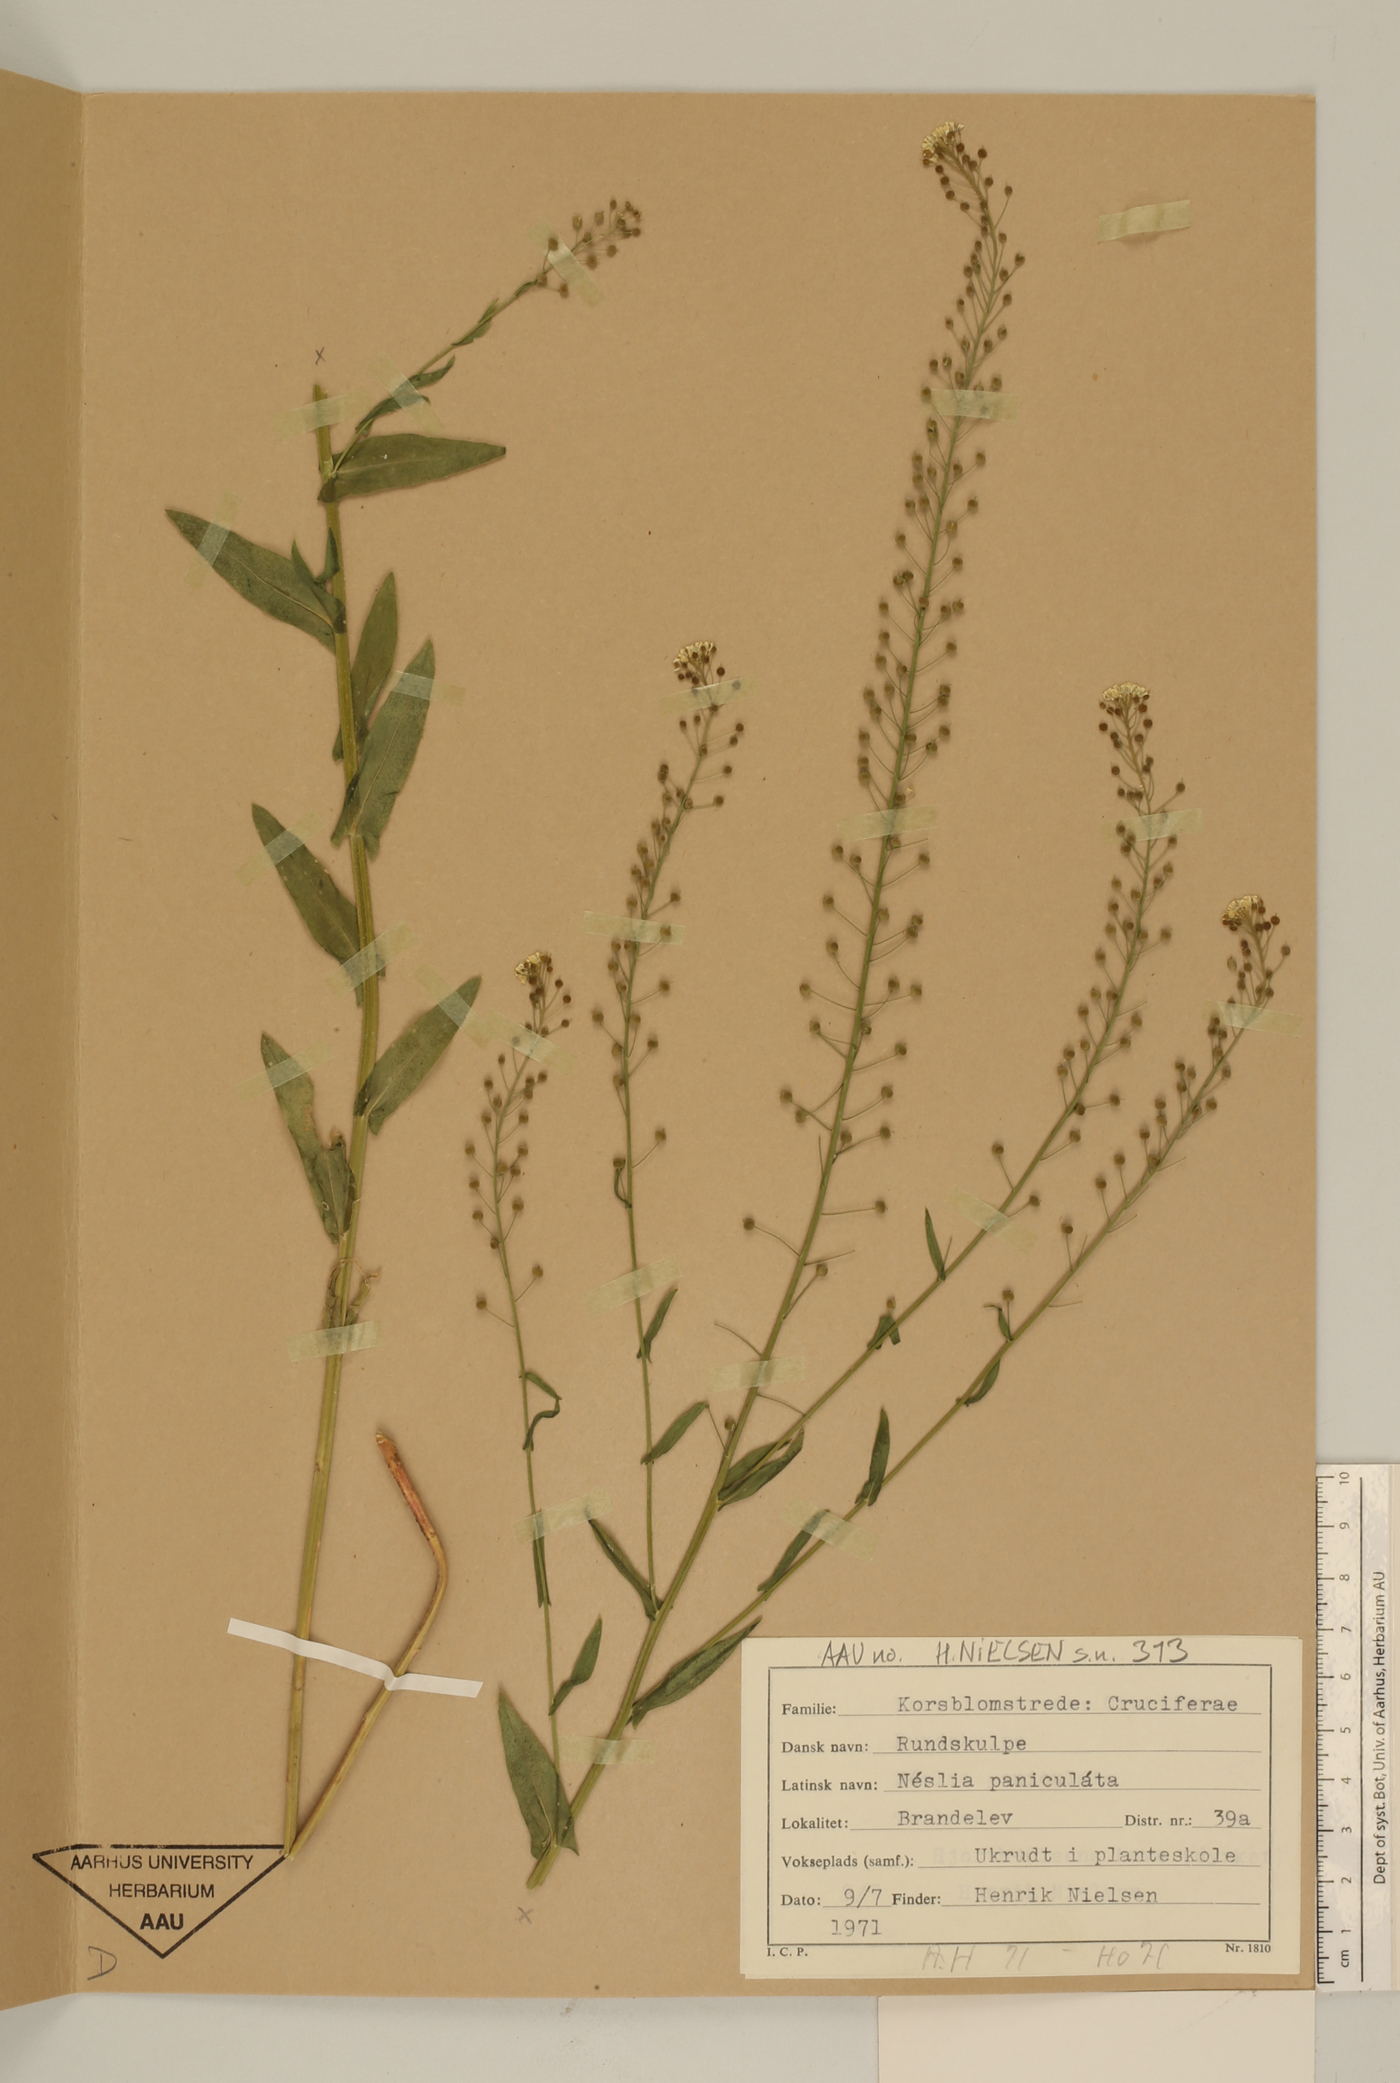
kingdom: Plantae
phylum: Tracheophyta
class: Magnoliopsida
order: Brassicales
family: Brassicaceae
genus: Neslia
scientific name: Neslia paniculata
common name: Ball mustard
